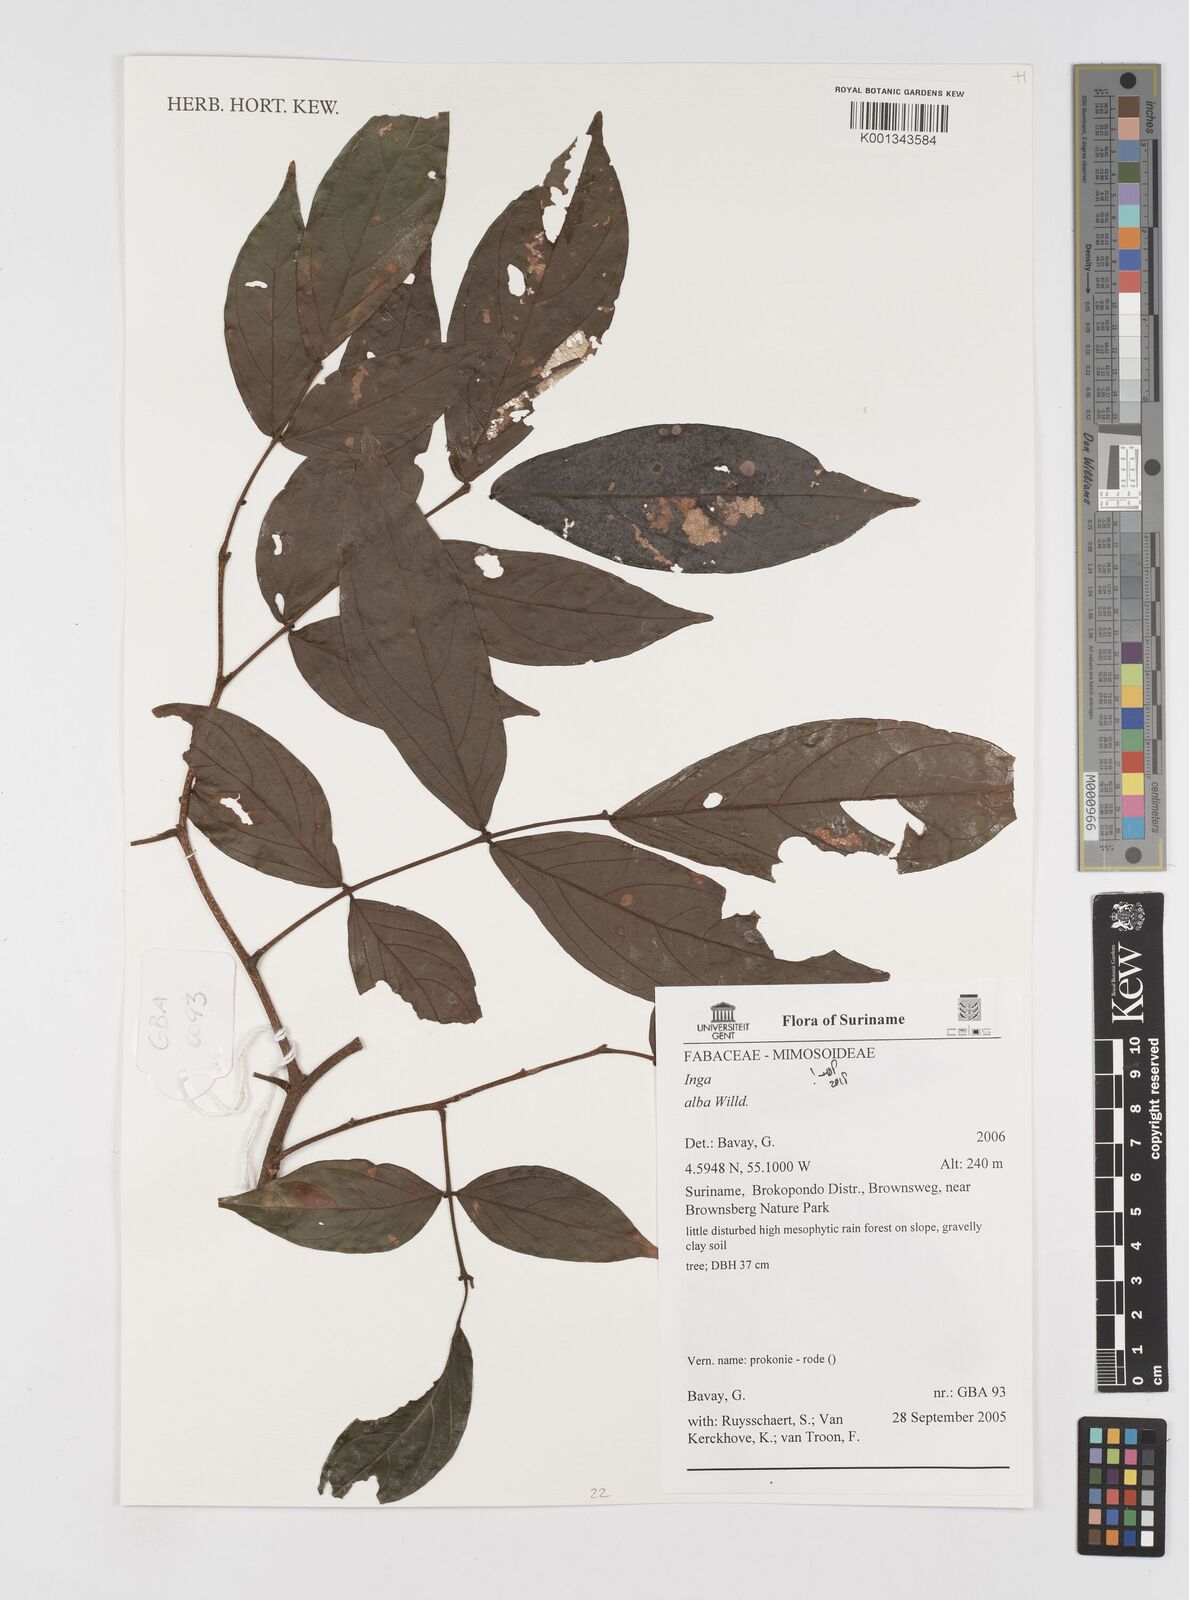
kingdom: Plantae
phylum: Tracheophyta
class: Magnoliopsida
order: Fabales
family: Fabaceae
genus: Inga
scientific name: Inga alba
